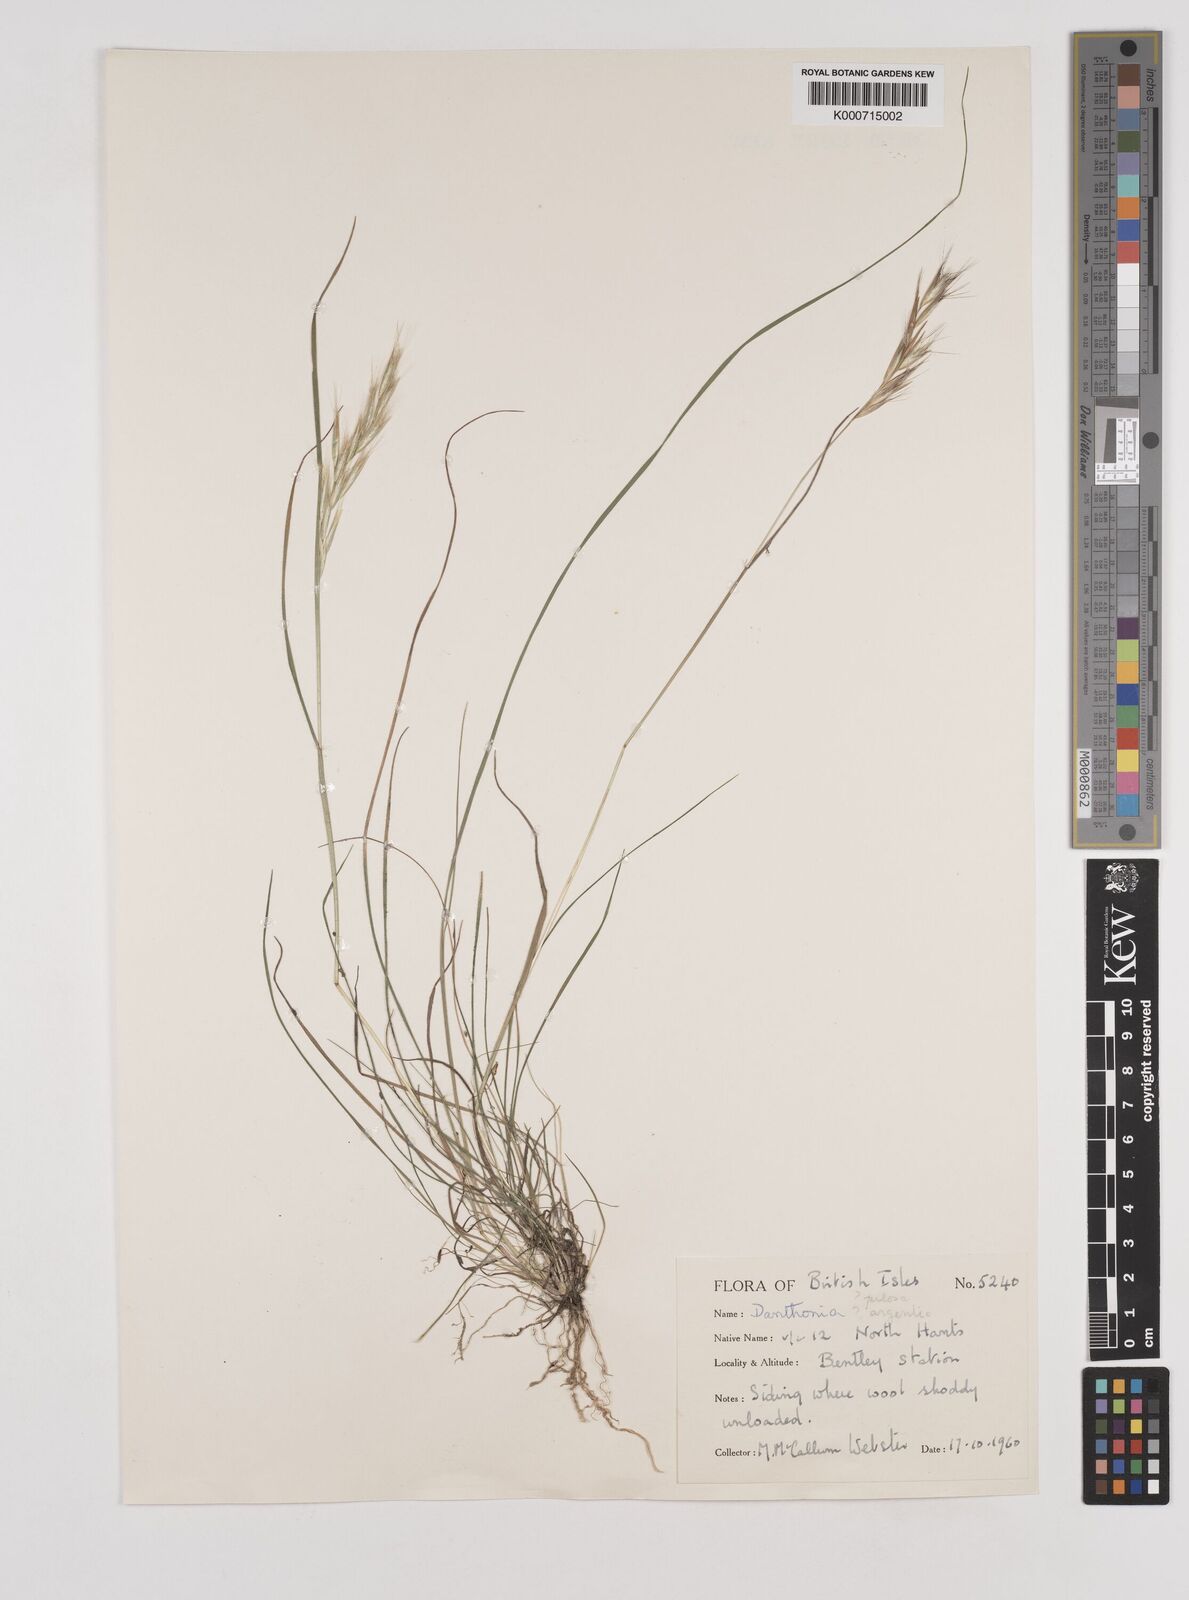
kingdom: Plantae
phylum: Tracheophyta
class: Liliopsida
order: Poales
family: Poaceae
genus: Rytidosperma
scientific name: Rytidosperma
